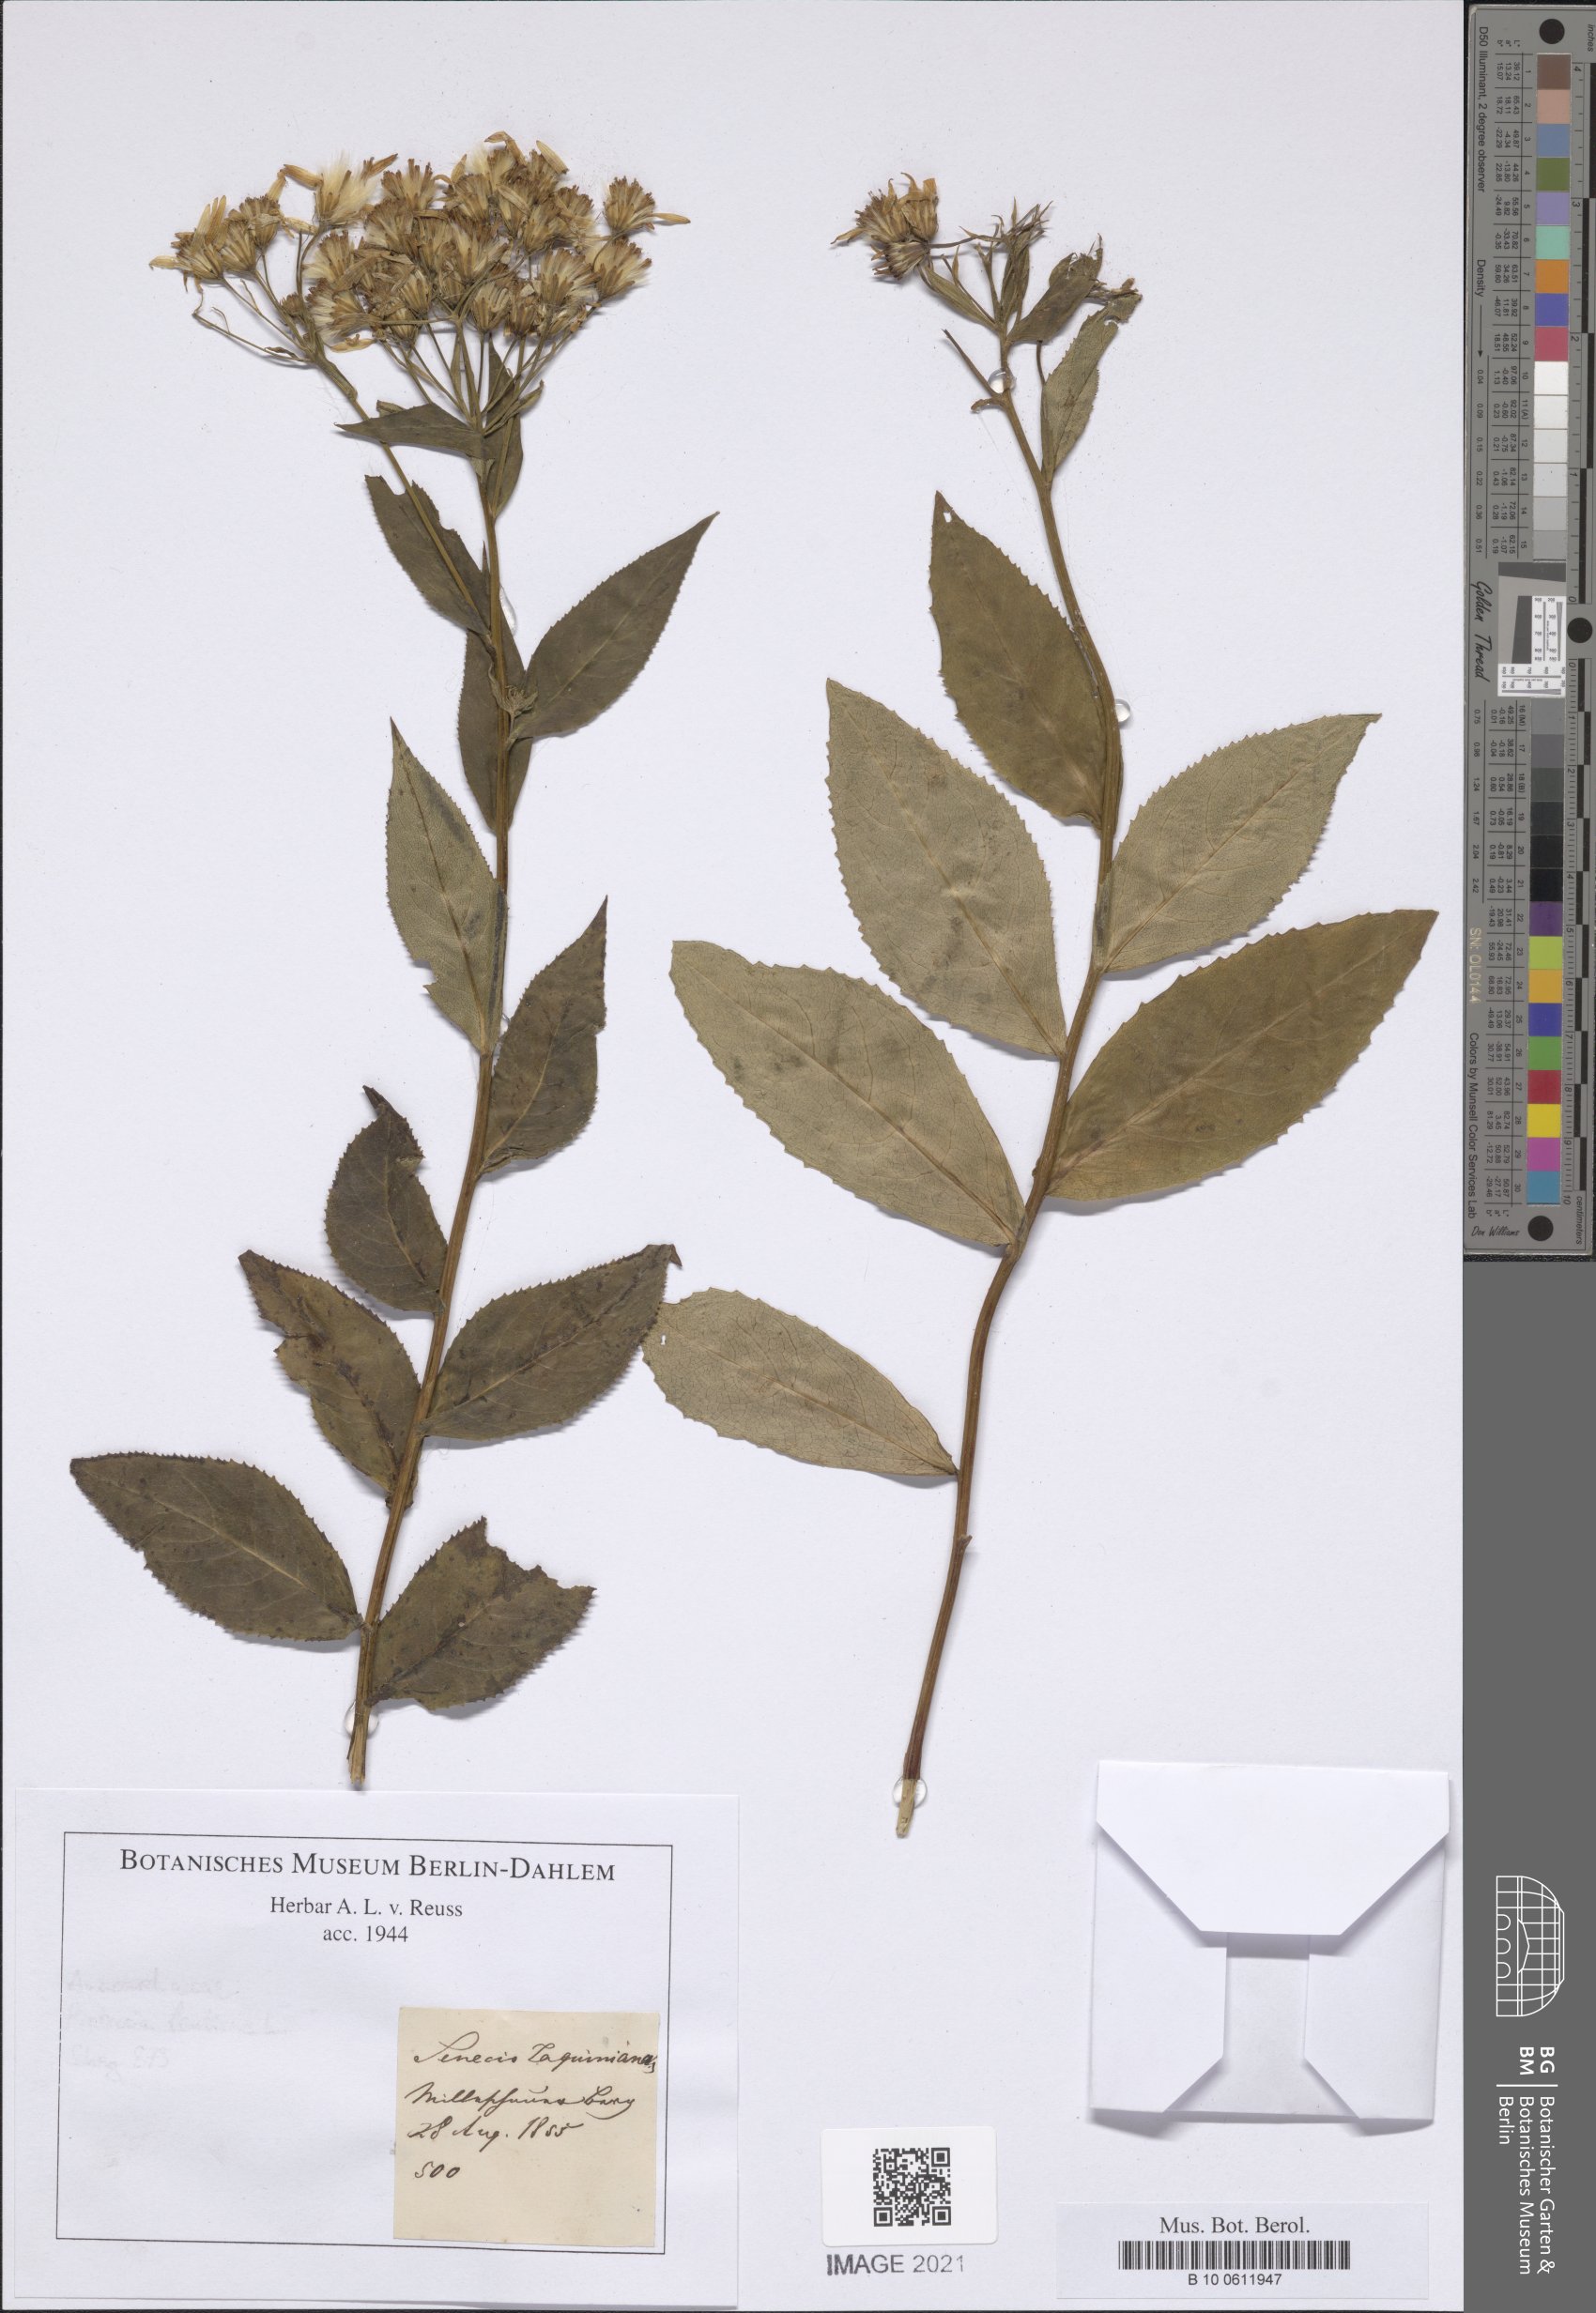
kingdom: Plantae
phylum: Tracheophyta
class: Magnoliopsida
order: Asterales
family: Asteraceae
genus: Senecio
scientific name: Senecio germanicus
